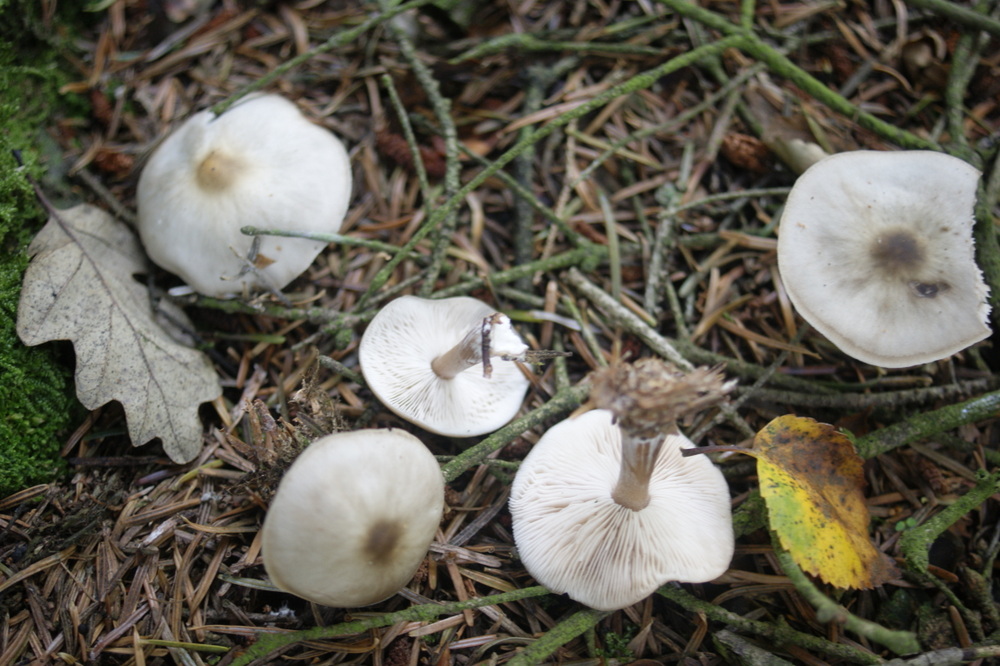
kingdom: Fungi
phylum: Basidiomycota
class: Agaricomycetes
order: Agaricales
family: Omphalotaceae
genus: Rhodocollybia
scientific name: Rhodocollybia asema
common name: horngrå fladhat
